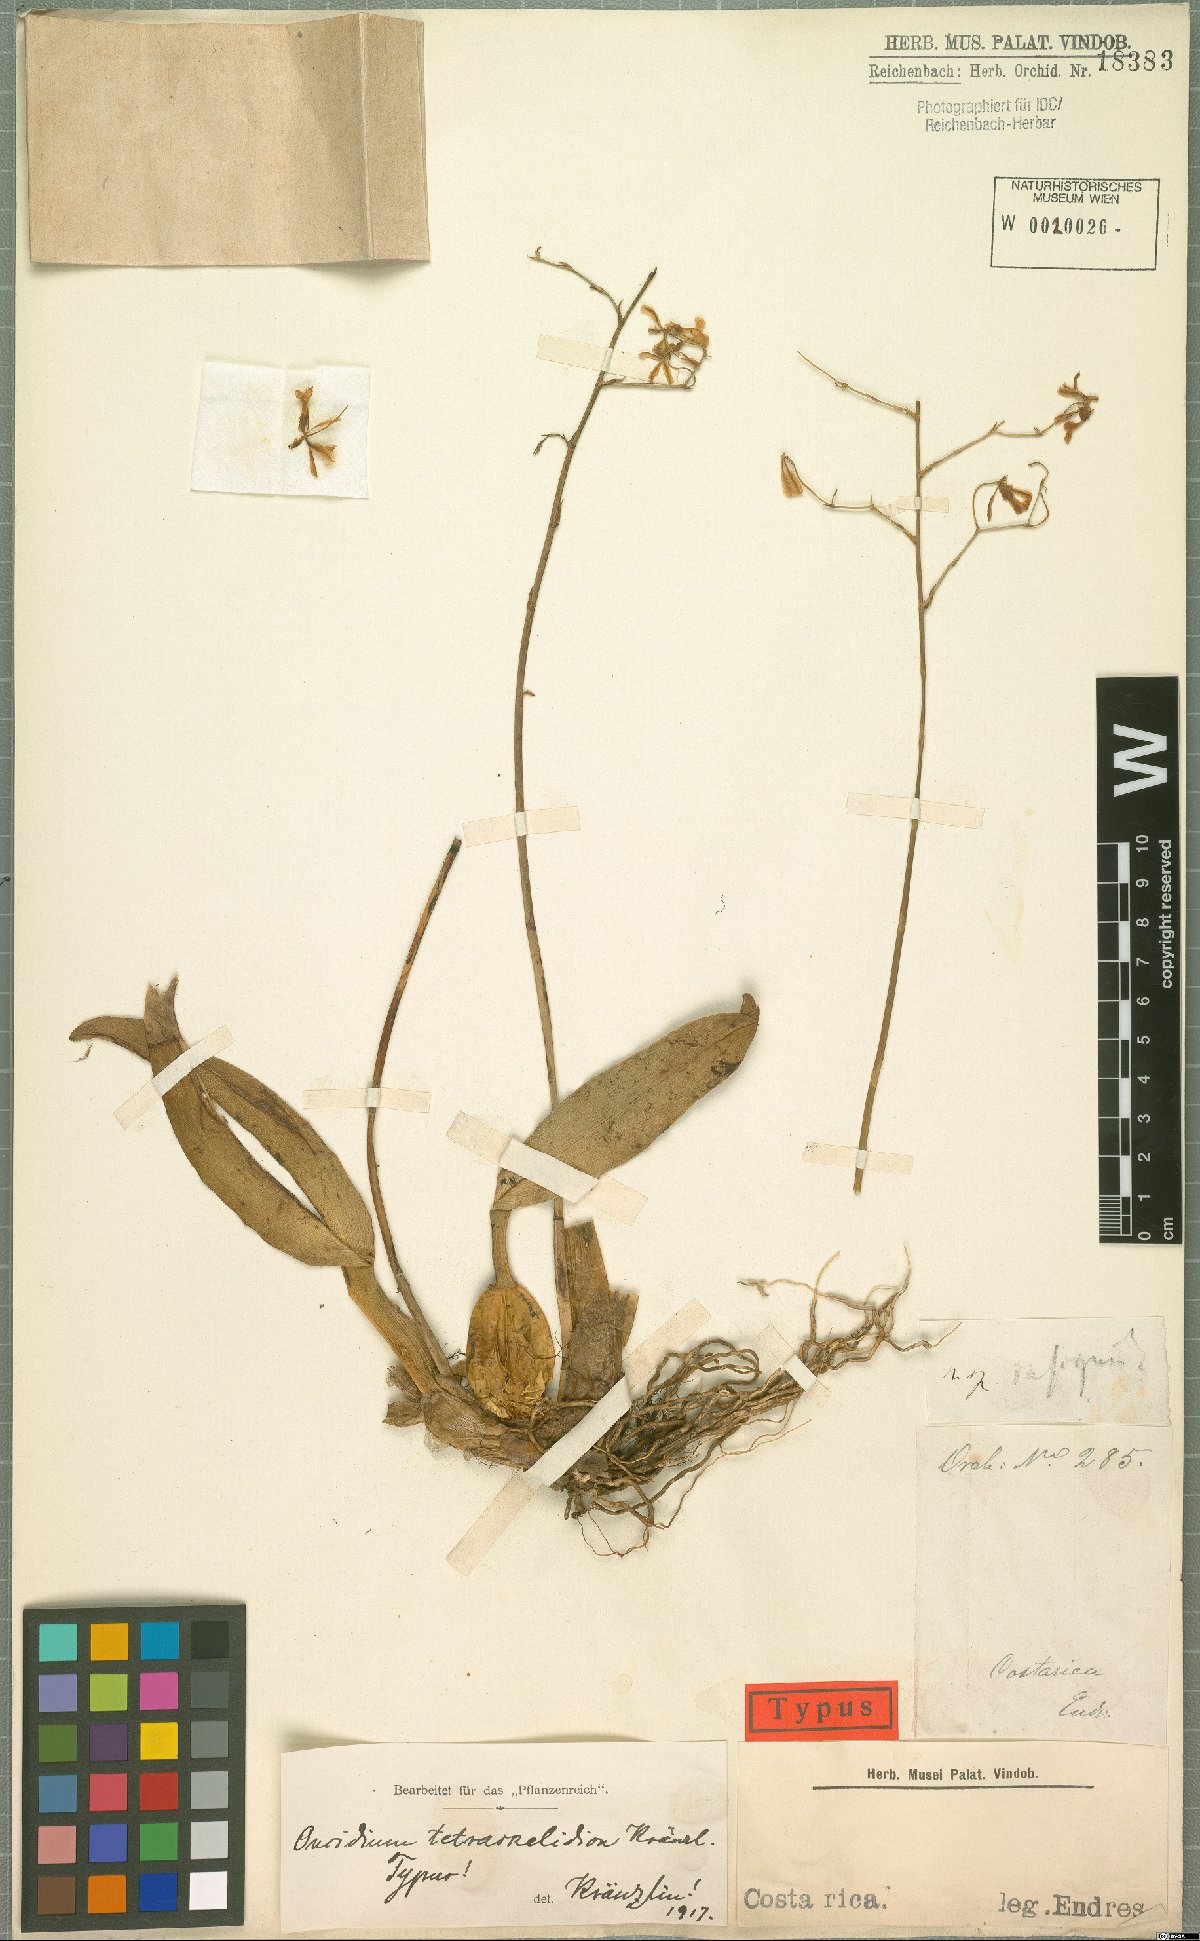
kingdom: Plantae
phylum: Tracheophyta
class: Liliopsida
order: Asparagales
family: Orchidaceae
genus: Oncidium
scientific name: Oncidium obryzatoides
